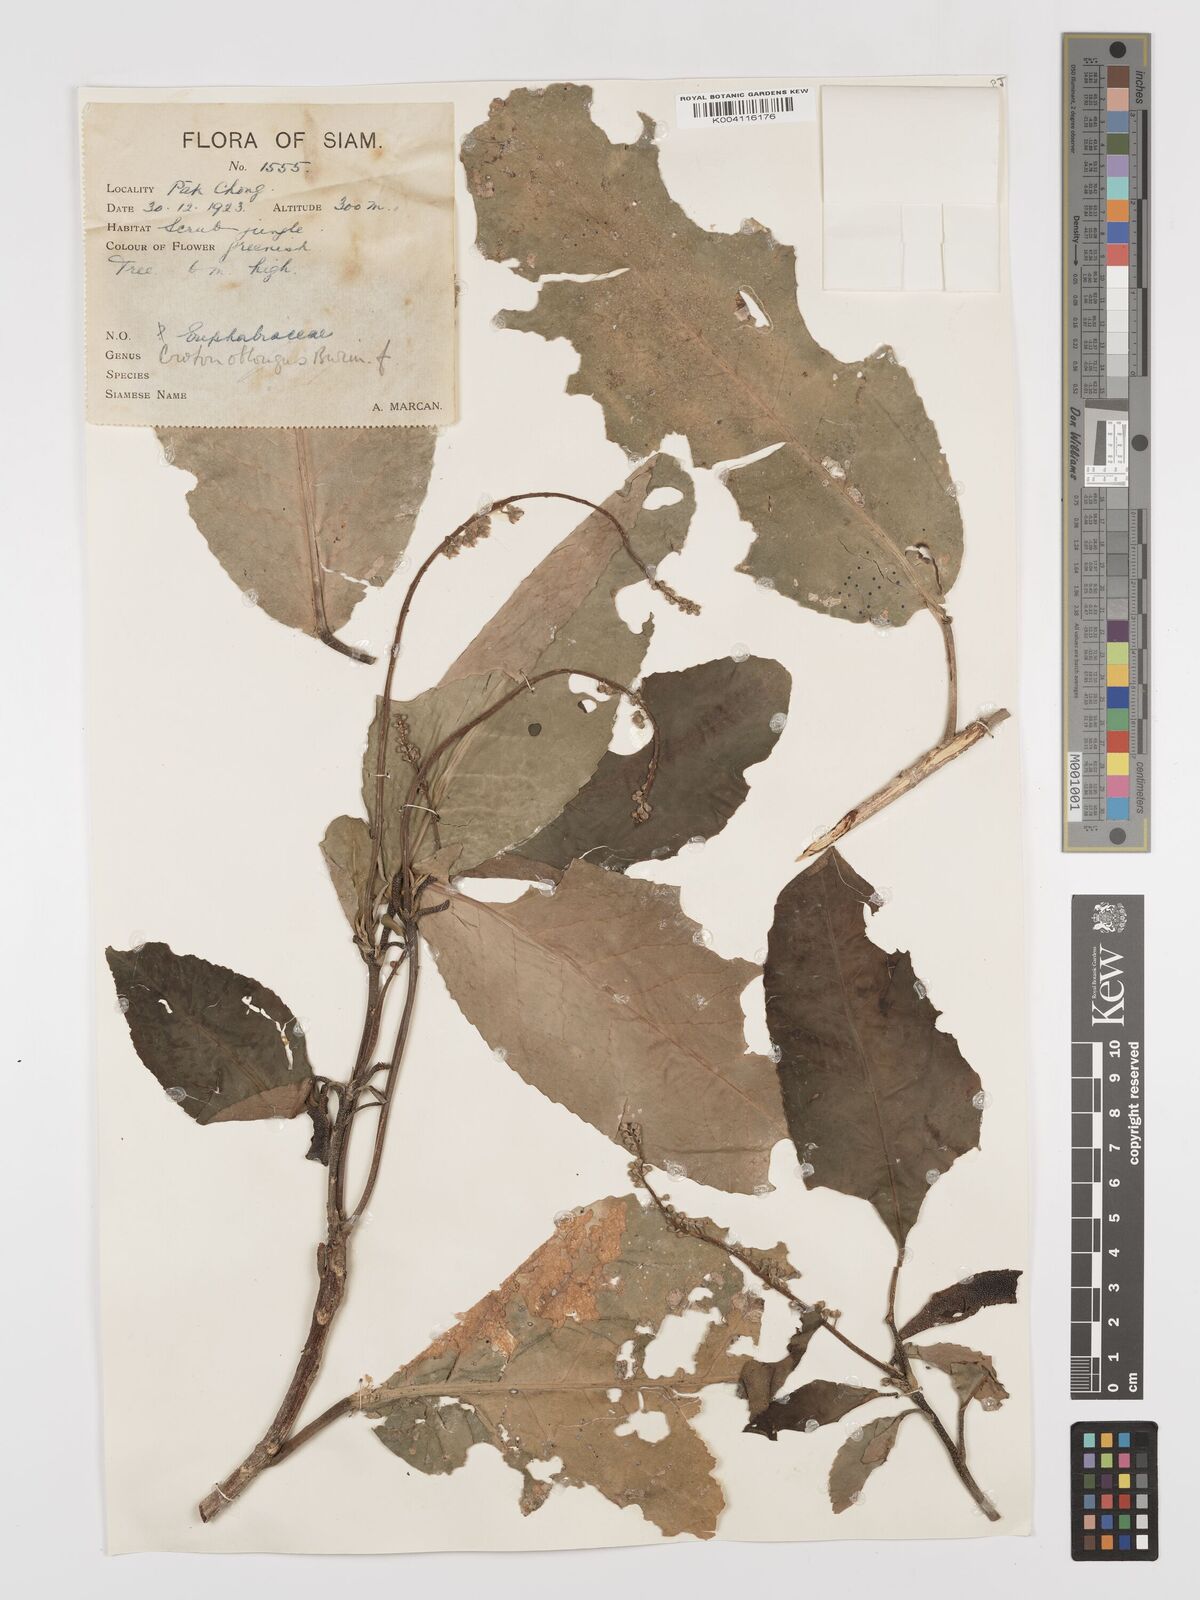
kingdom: Plantae
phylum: Tracheophyta
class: Magnoliopsida
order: Malpighiales
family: Euphorbiaceae
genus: Baliospermum
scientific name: Baliospermum solanifolium
